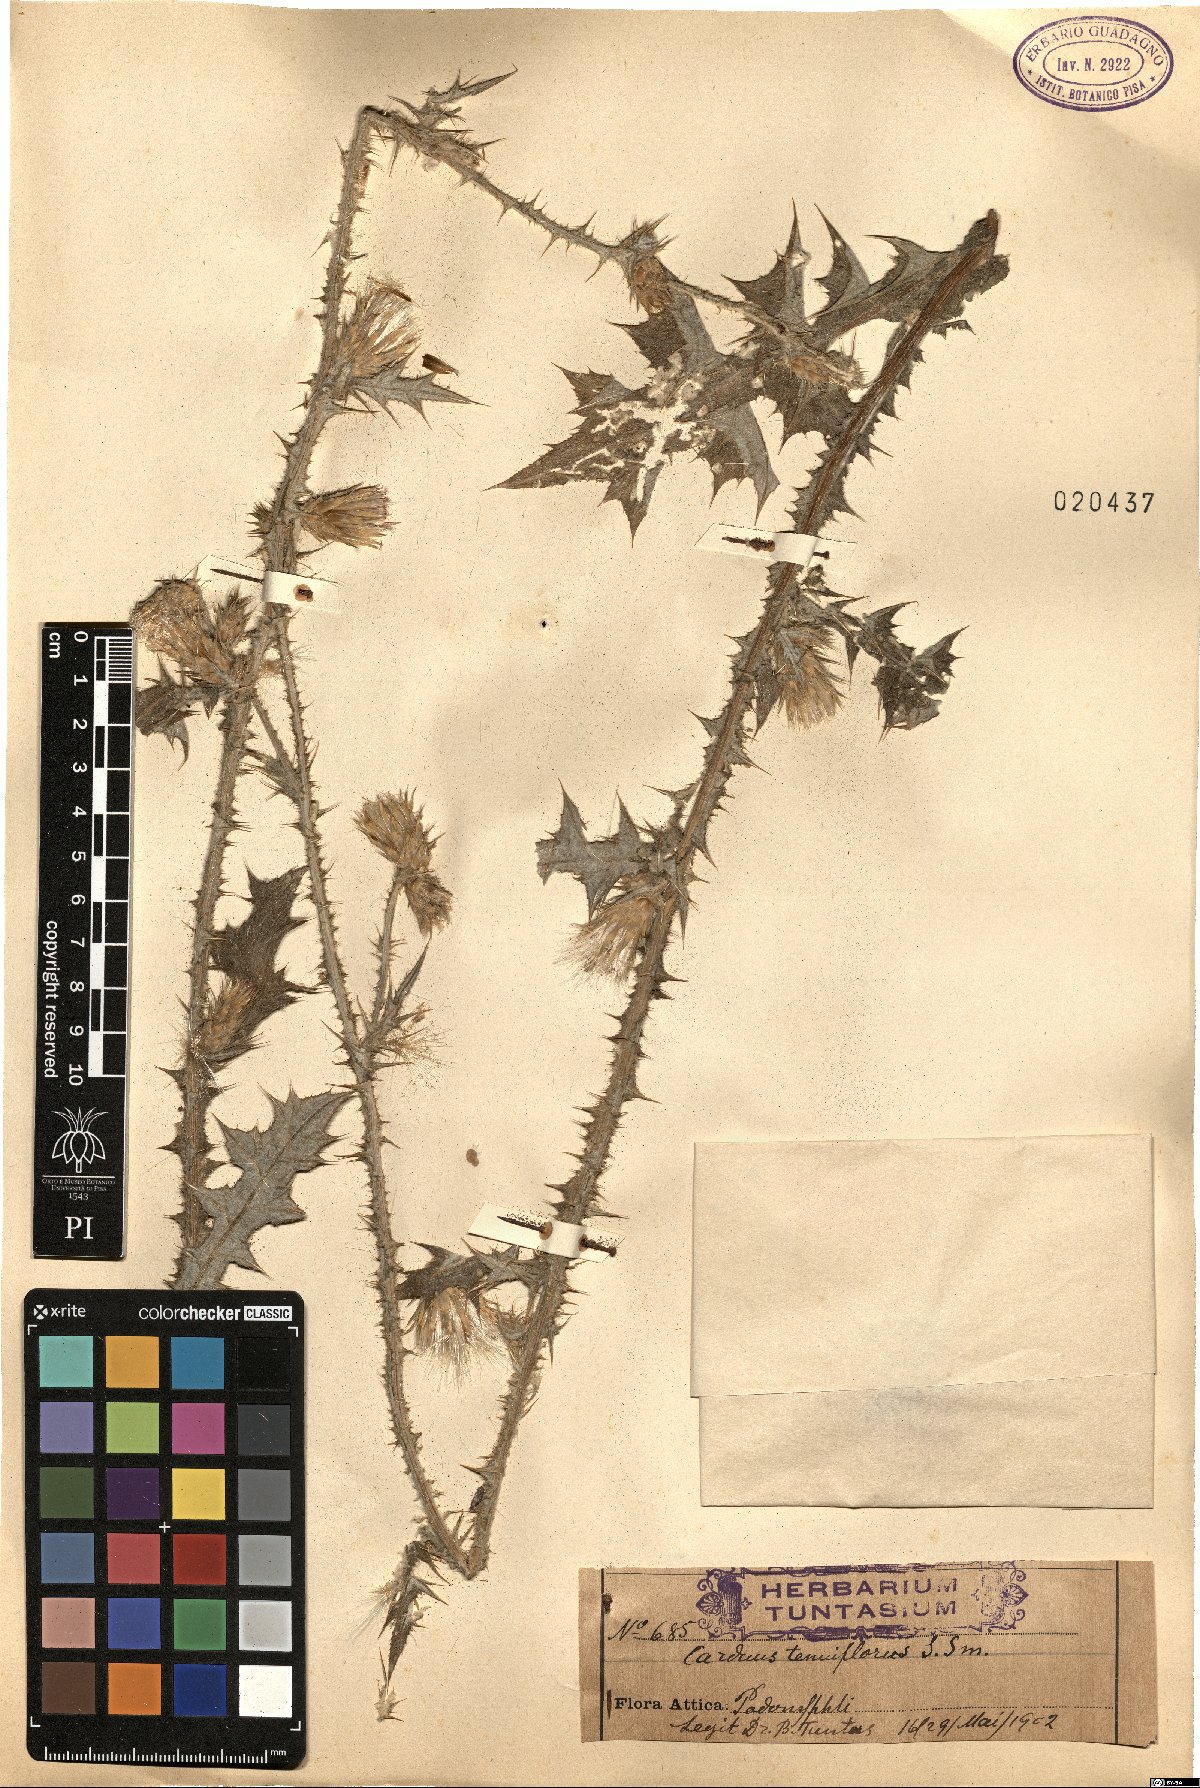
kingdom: Plantae
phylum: Tracheophyta
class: Magnoliopsida
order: Asterales
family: Asteraceae
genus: Carduus
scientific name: Carduus tenuiflorus
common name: Slender thistle
